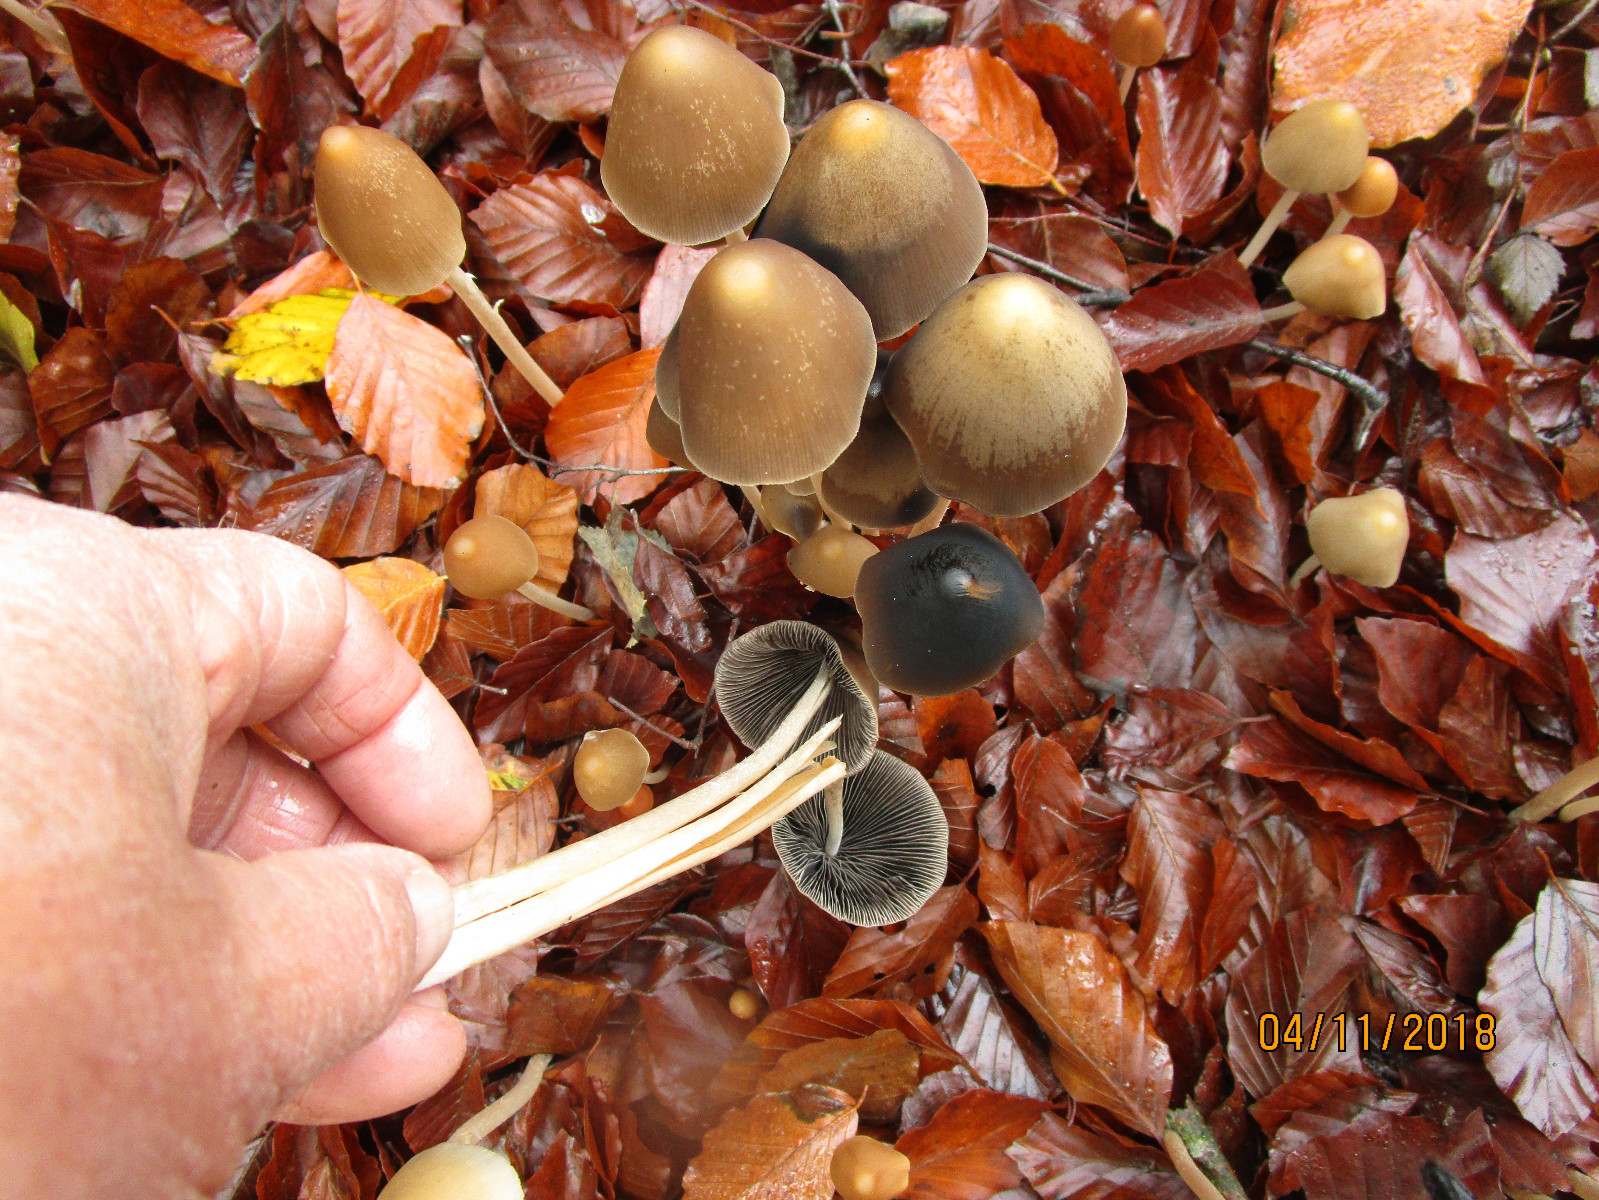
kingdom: Fungi
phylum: Basidiomycota
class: Agaricomycetes
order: Agaricales
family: Psathyrellaceae
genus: Parasola
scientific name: Parasola conopilea
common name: kegle-hjulhat
